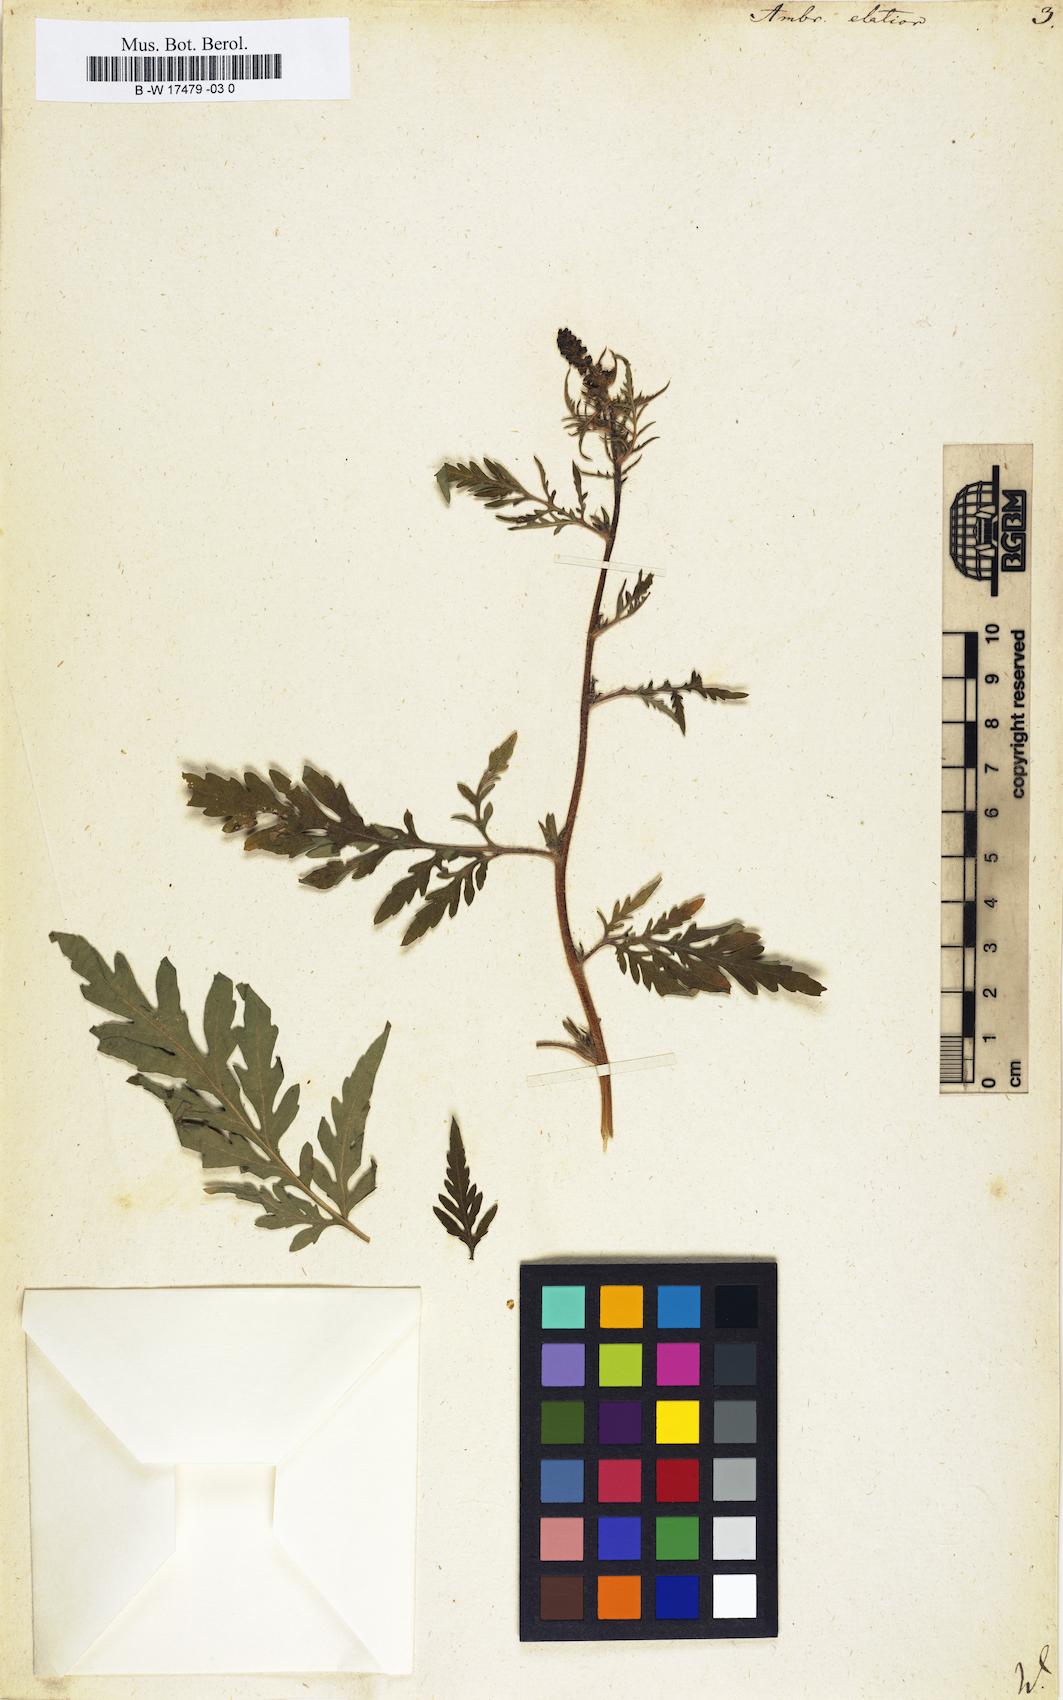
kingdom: Plantae
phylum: Tracheophyta
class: Magnoliopsida
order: Asterales
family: Asteraceae
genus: Ambrosia
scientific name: Ambrosia artemisiifolia
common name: Annual ragweed
